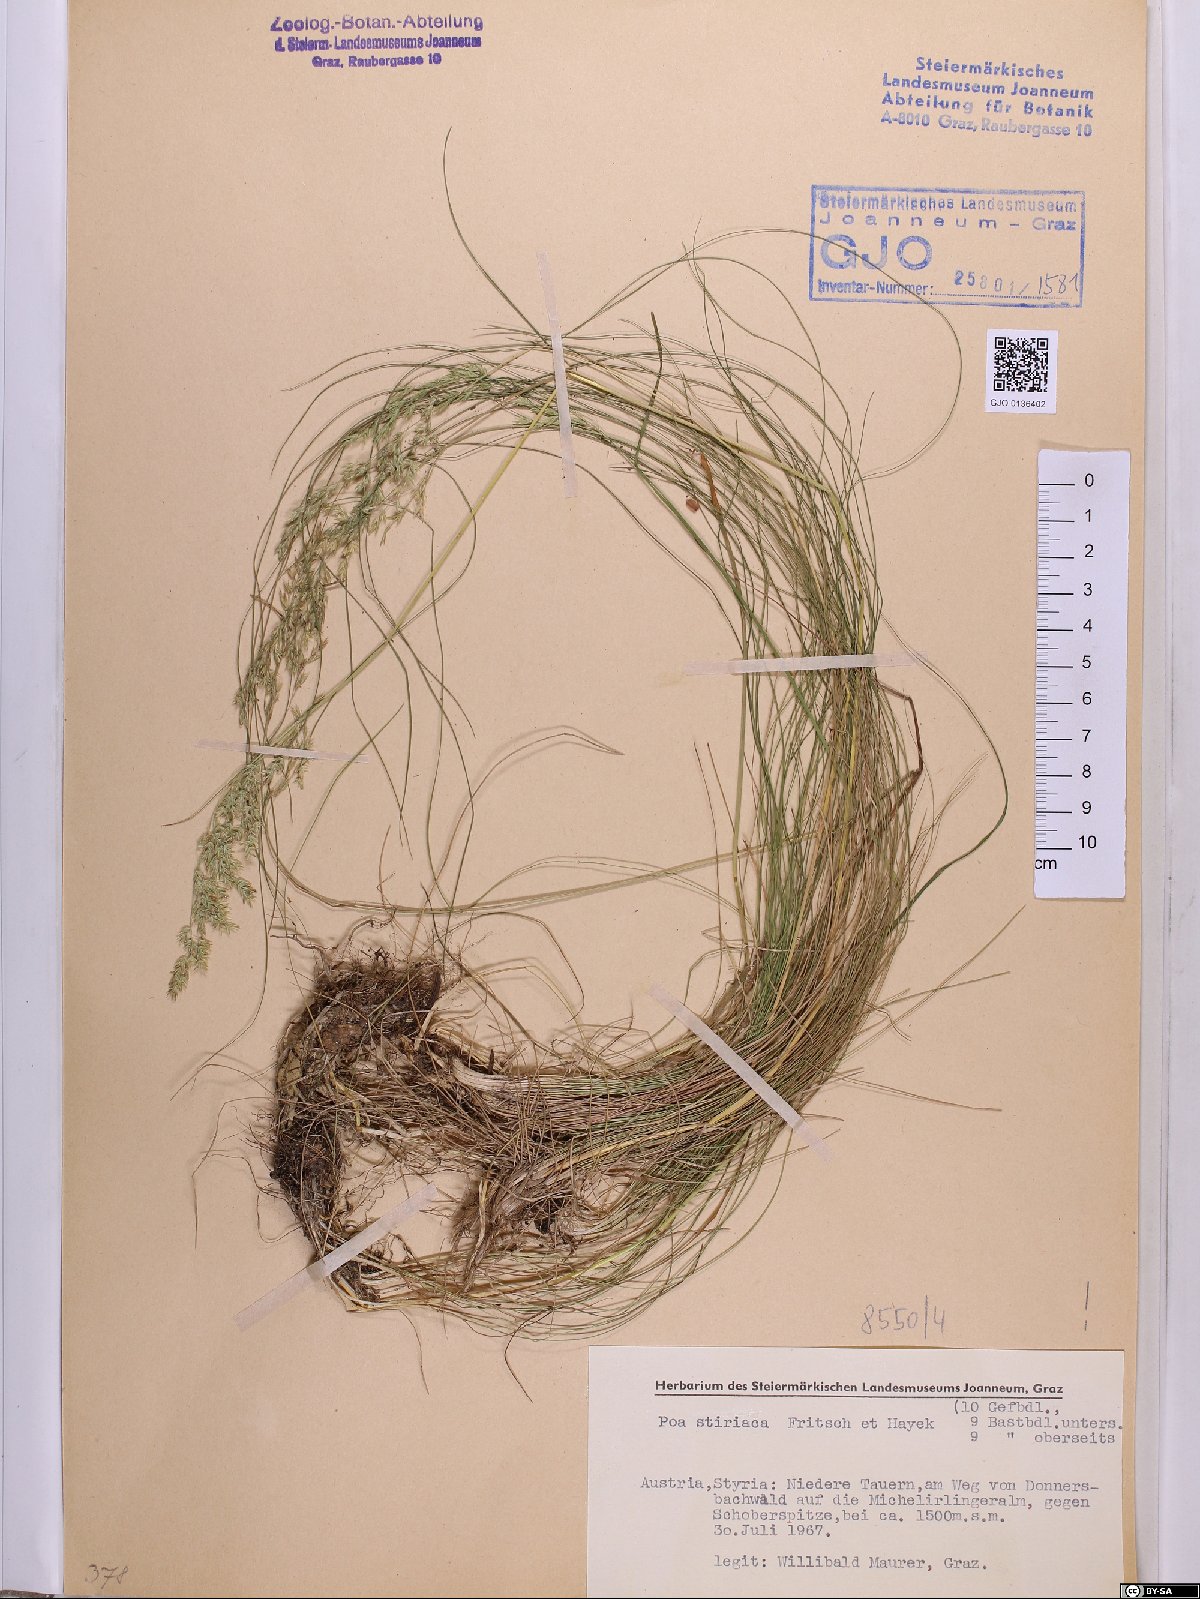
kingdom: Plantae
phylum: Tracheophyta
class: Liliopsida
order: Poales
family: Poaceae
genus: Poa
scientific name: Poa stiriaca
